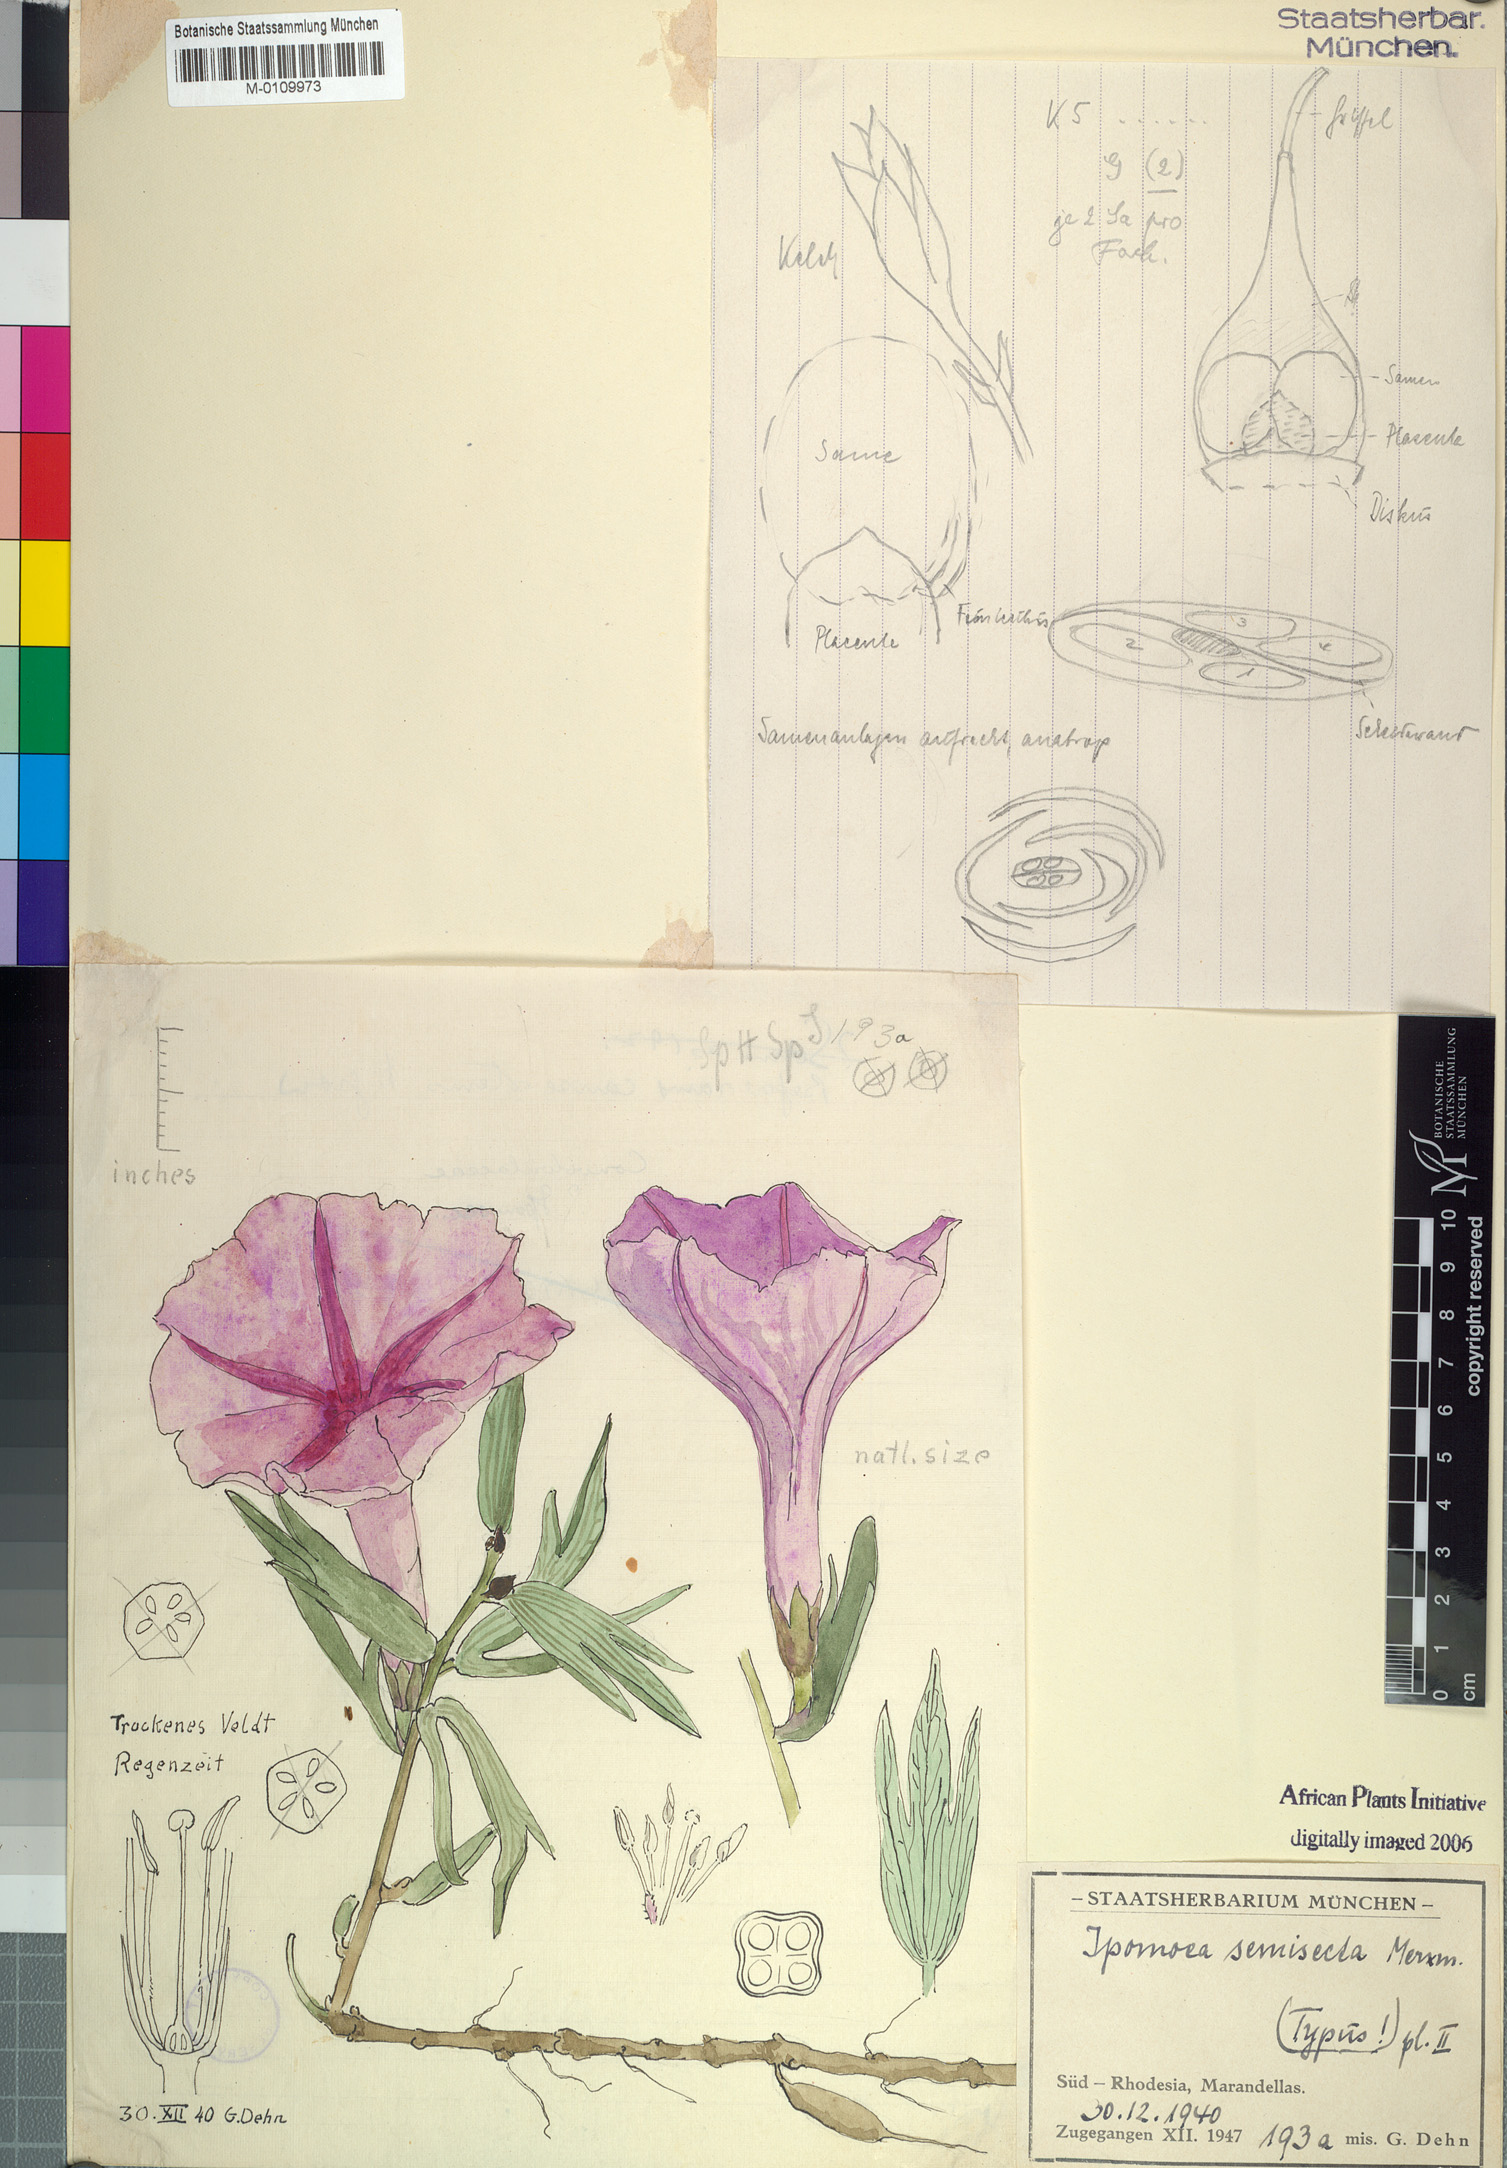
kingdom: Plantae
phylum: Tracheophyta
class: Magnoliopsida
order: Solanales
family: Convolvulaceae
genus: Ipomoea
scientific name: Ipomoea welwitschii
